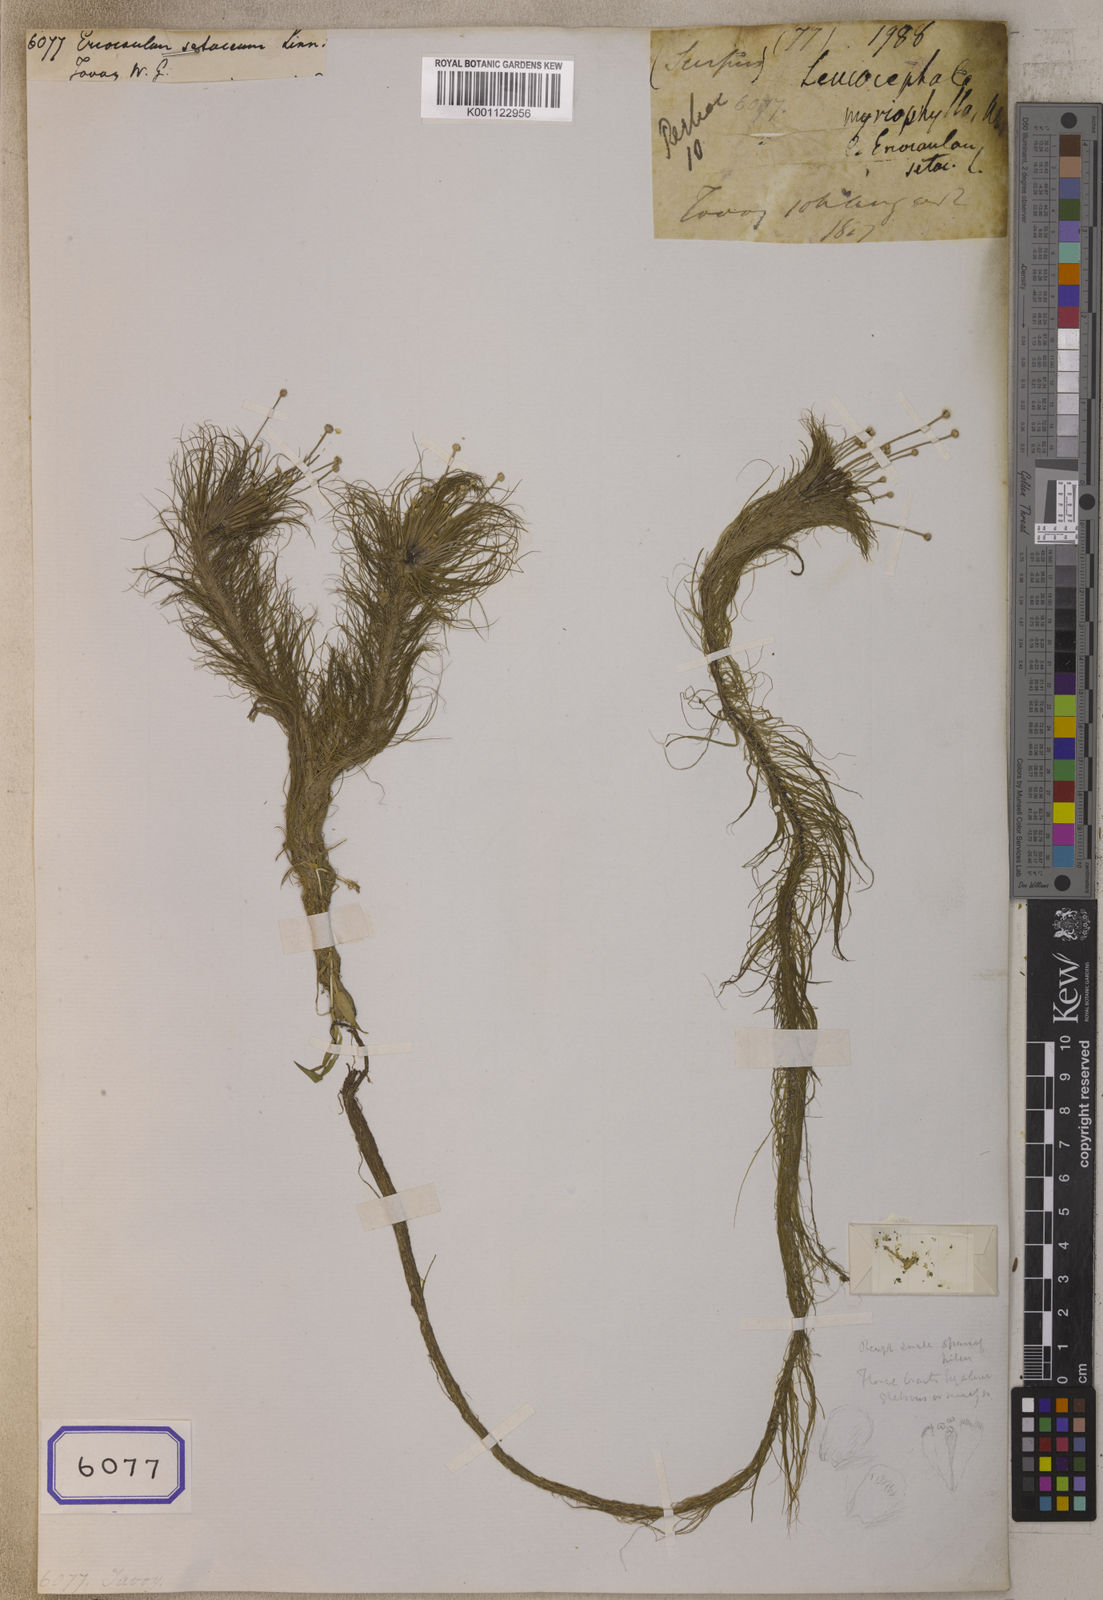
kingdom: Plantae
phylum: Tracheophyta
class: Liliopsida
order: Poales
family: Eriocaulaceae
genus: Eriocaulon
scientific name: Eriocaulon setaceum
